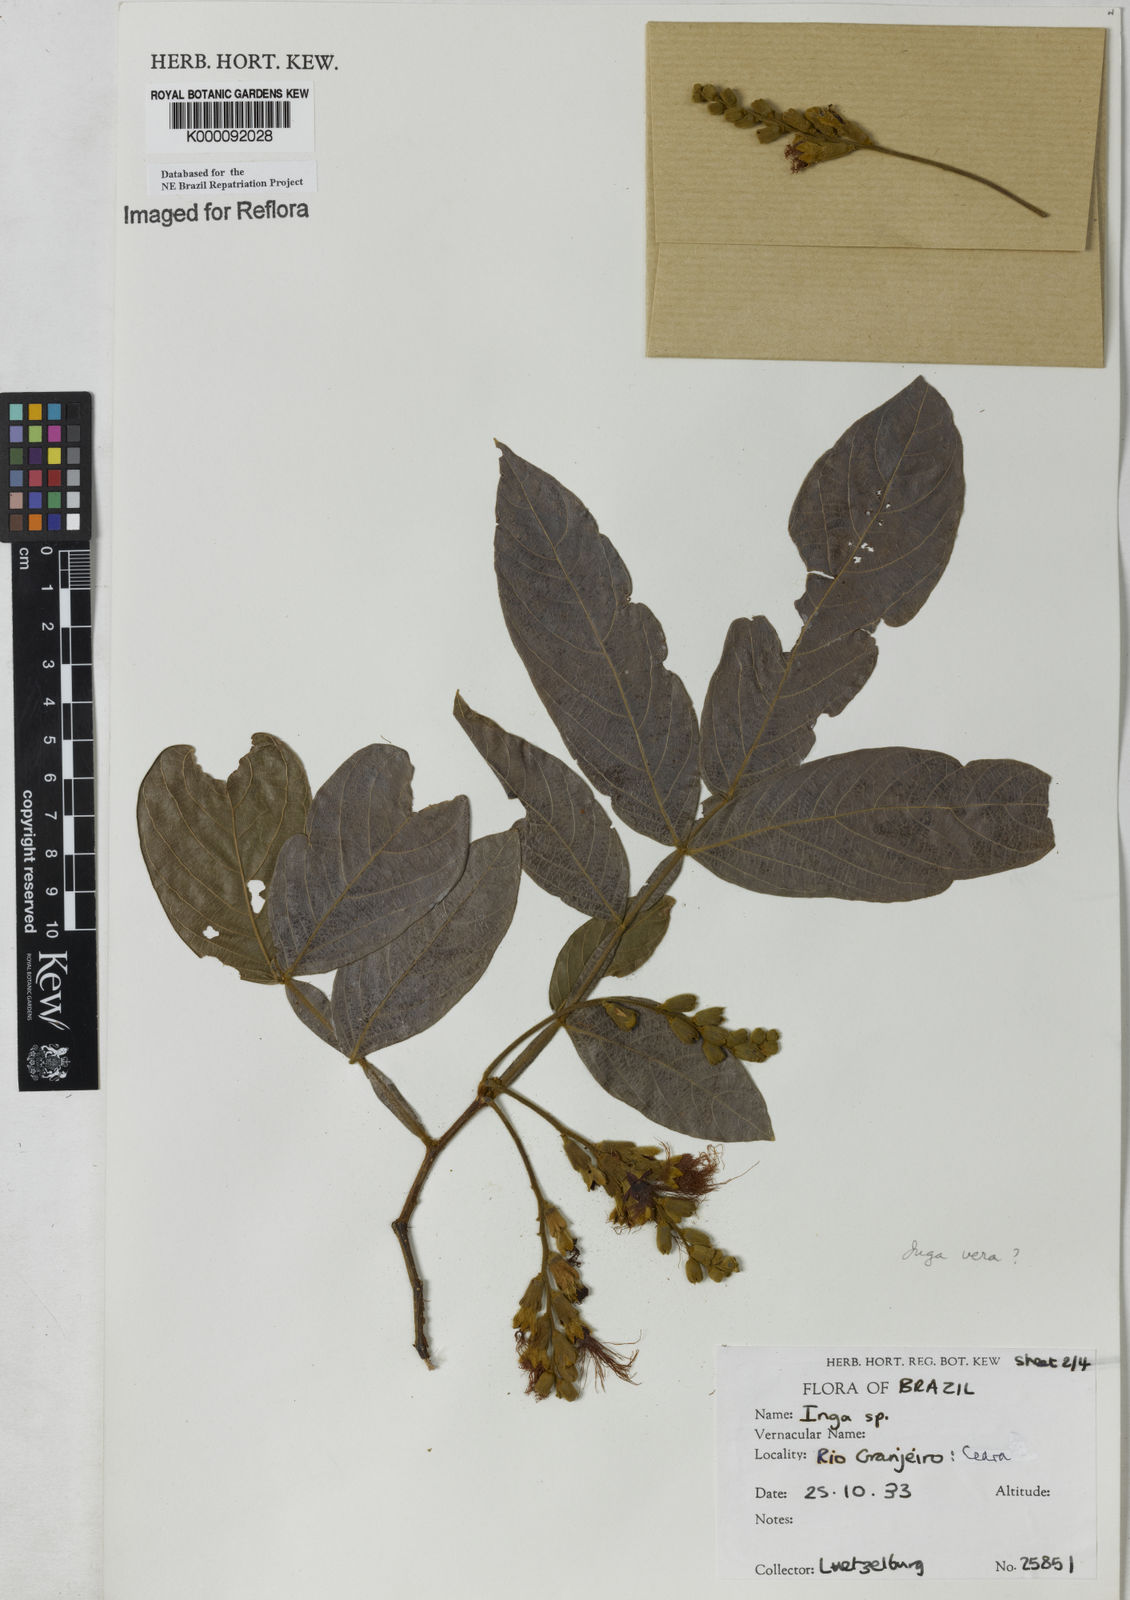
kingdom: Plantae
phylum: Tracheophyta
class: Magnoliopsida
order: Fabales
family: Fabaceae
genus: Inga
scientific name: Inga affinis
